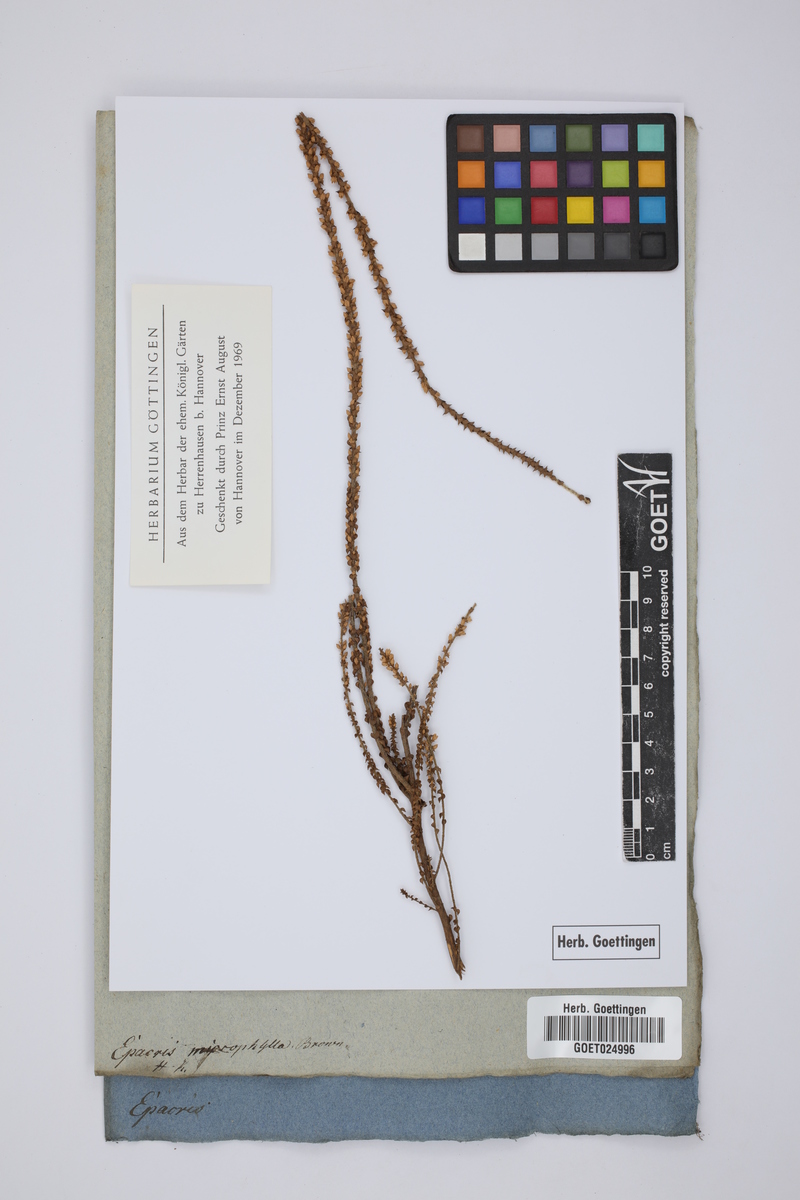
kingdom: Plantae
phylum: Tracheophyta
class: Magnoliopsida
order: Ericales
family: Ericaceae
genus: Epacris
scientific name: Epacris microphylla
